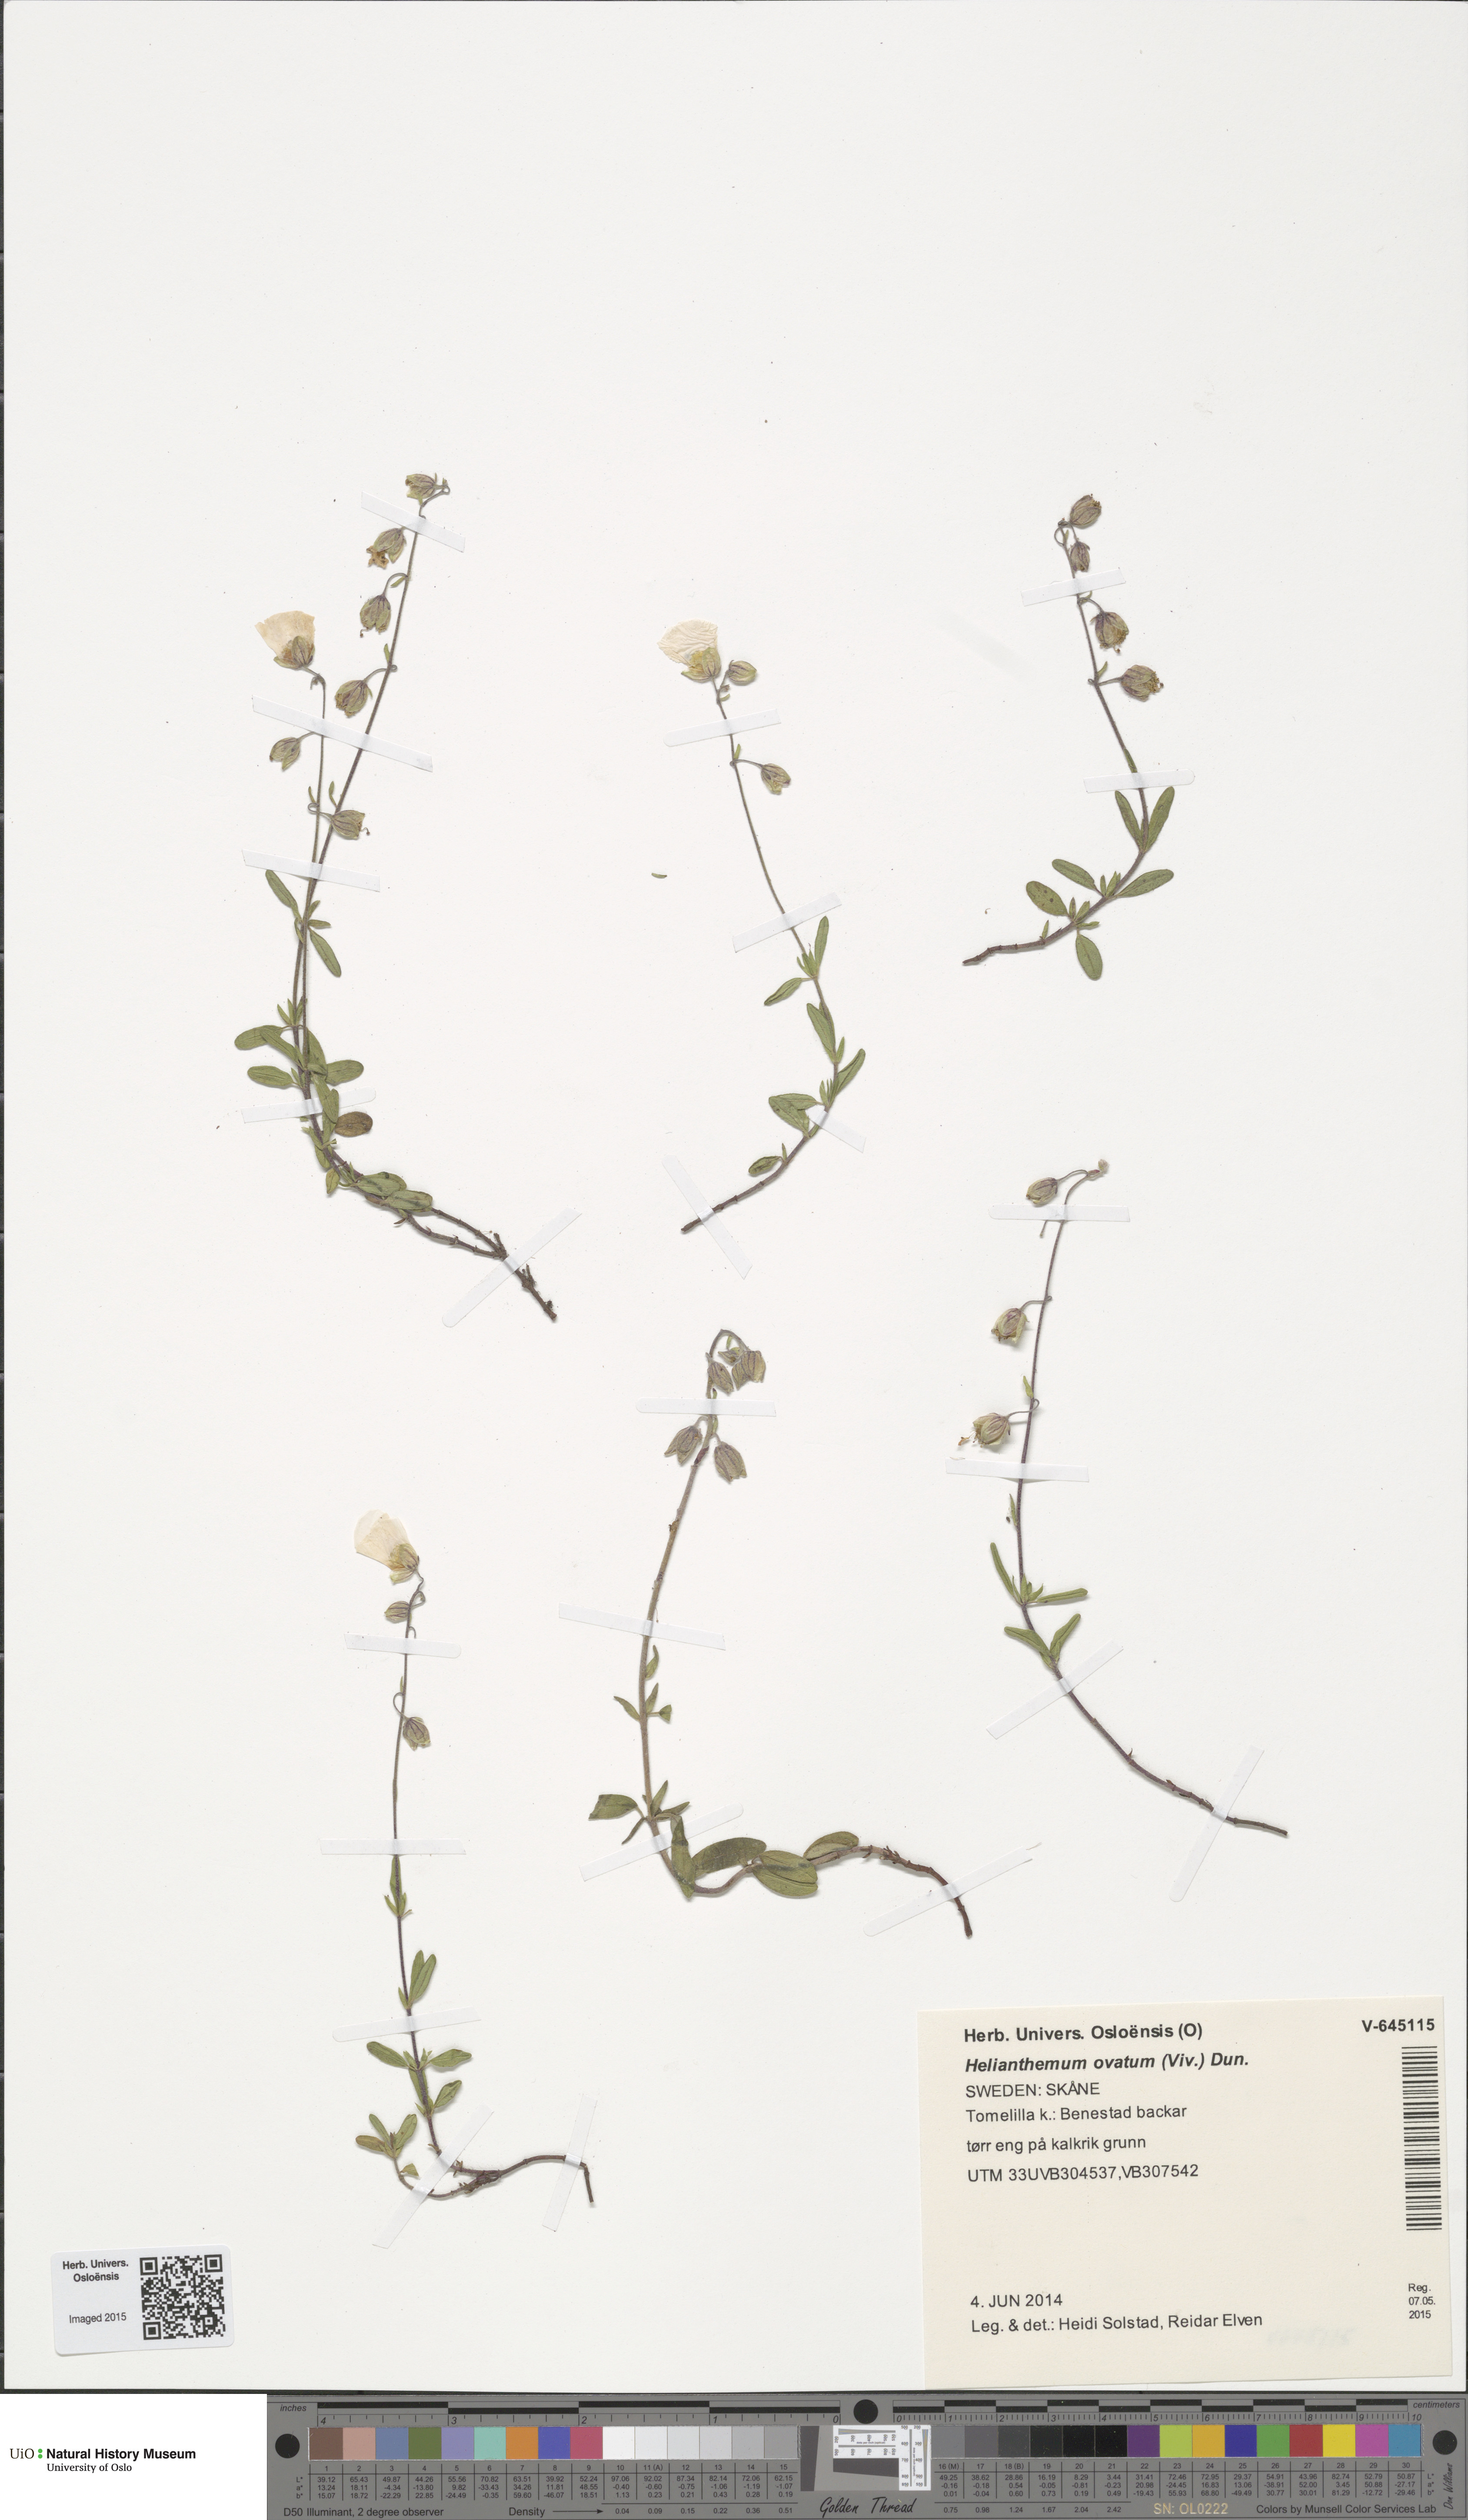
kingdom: Plantae
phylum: Tracheophyta
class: Magnoliopsida
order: Malvales
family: Cistaceae
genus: Helianthemum
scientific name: Helianthemum nummularium
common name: Common rock-rose
